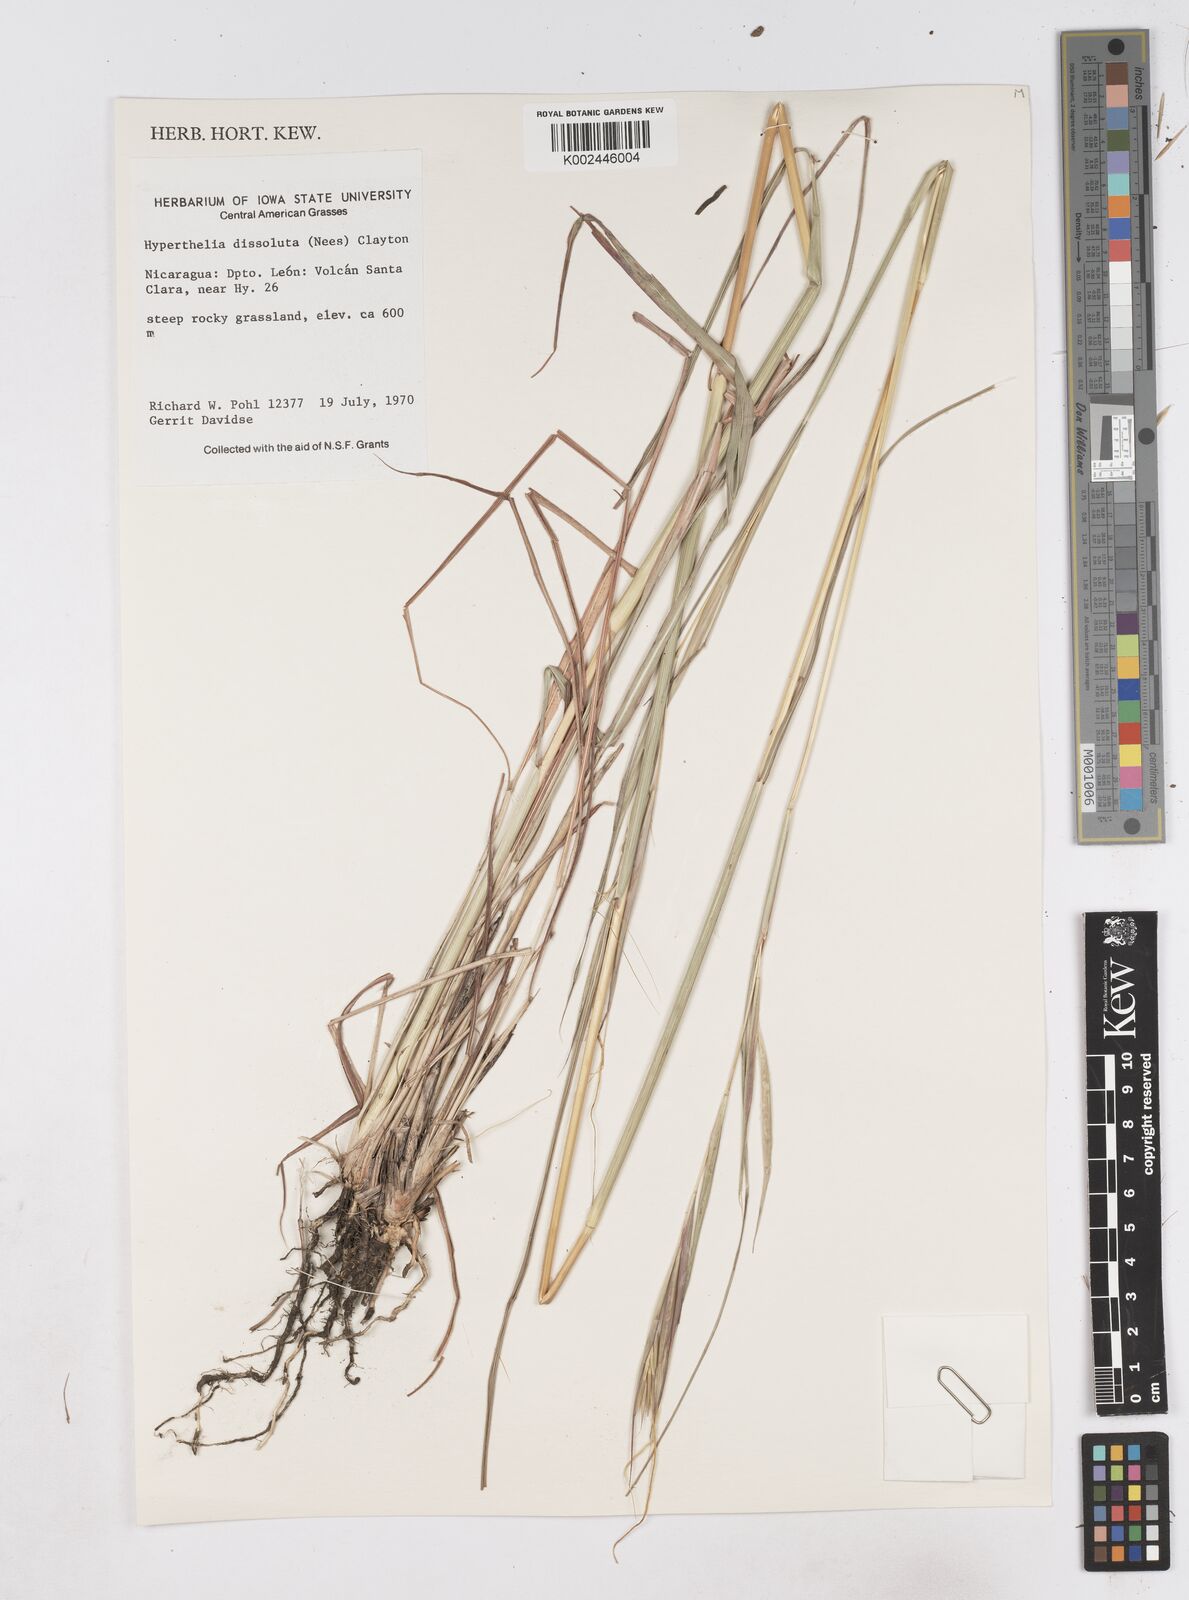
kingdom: Plantae
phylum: Tracheophyta
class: Liliopsida
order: Poales
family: Poaceae
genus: Hyperthelia
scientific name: Hyperthelia dissoluta
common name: Yellow thatching grass
